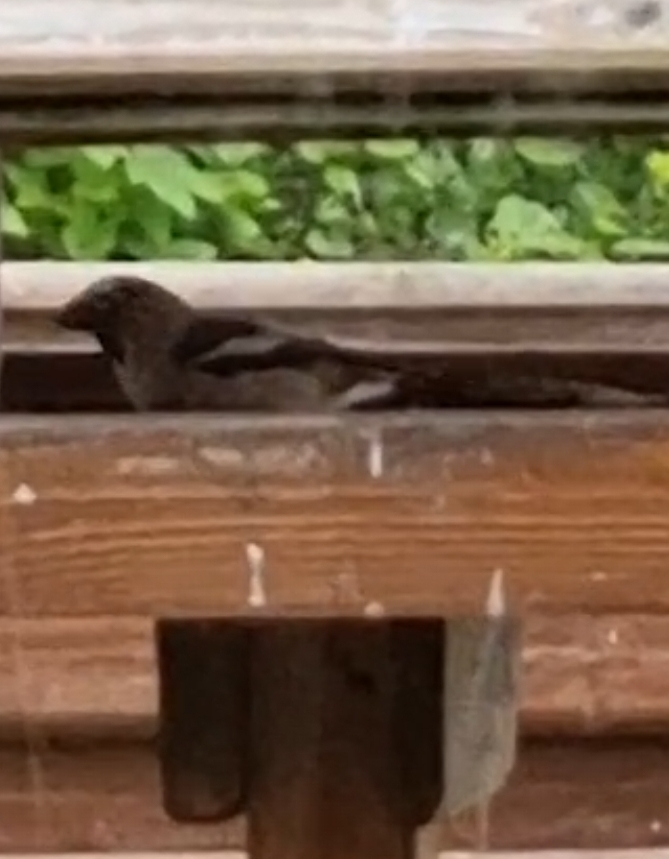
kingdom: Animalia
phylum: Chordata
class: Aves
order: Passeriformes
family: Fringillidae
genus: Coccothraustes
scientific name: Coccothraustes coccothraustes
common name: Kernebider
